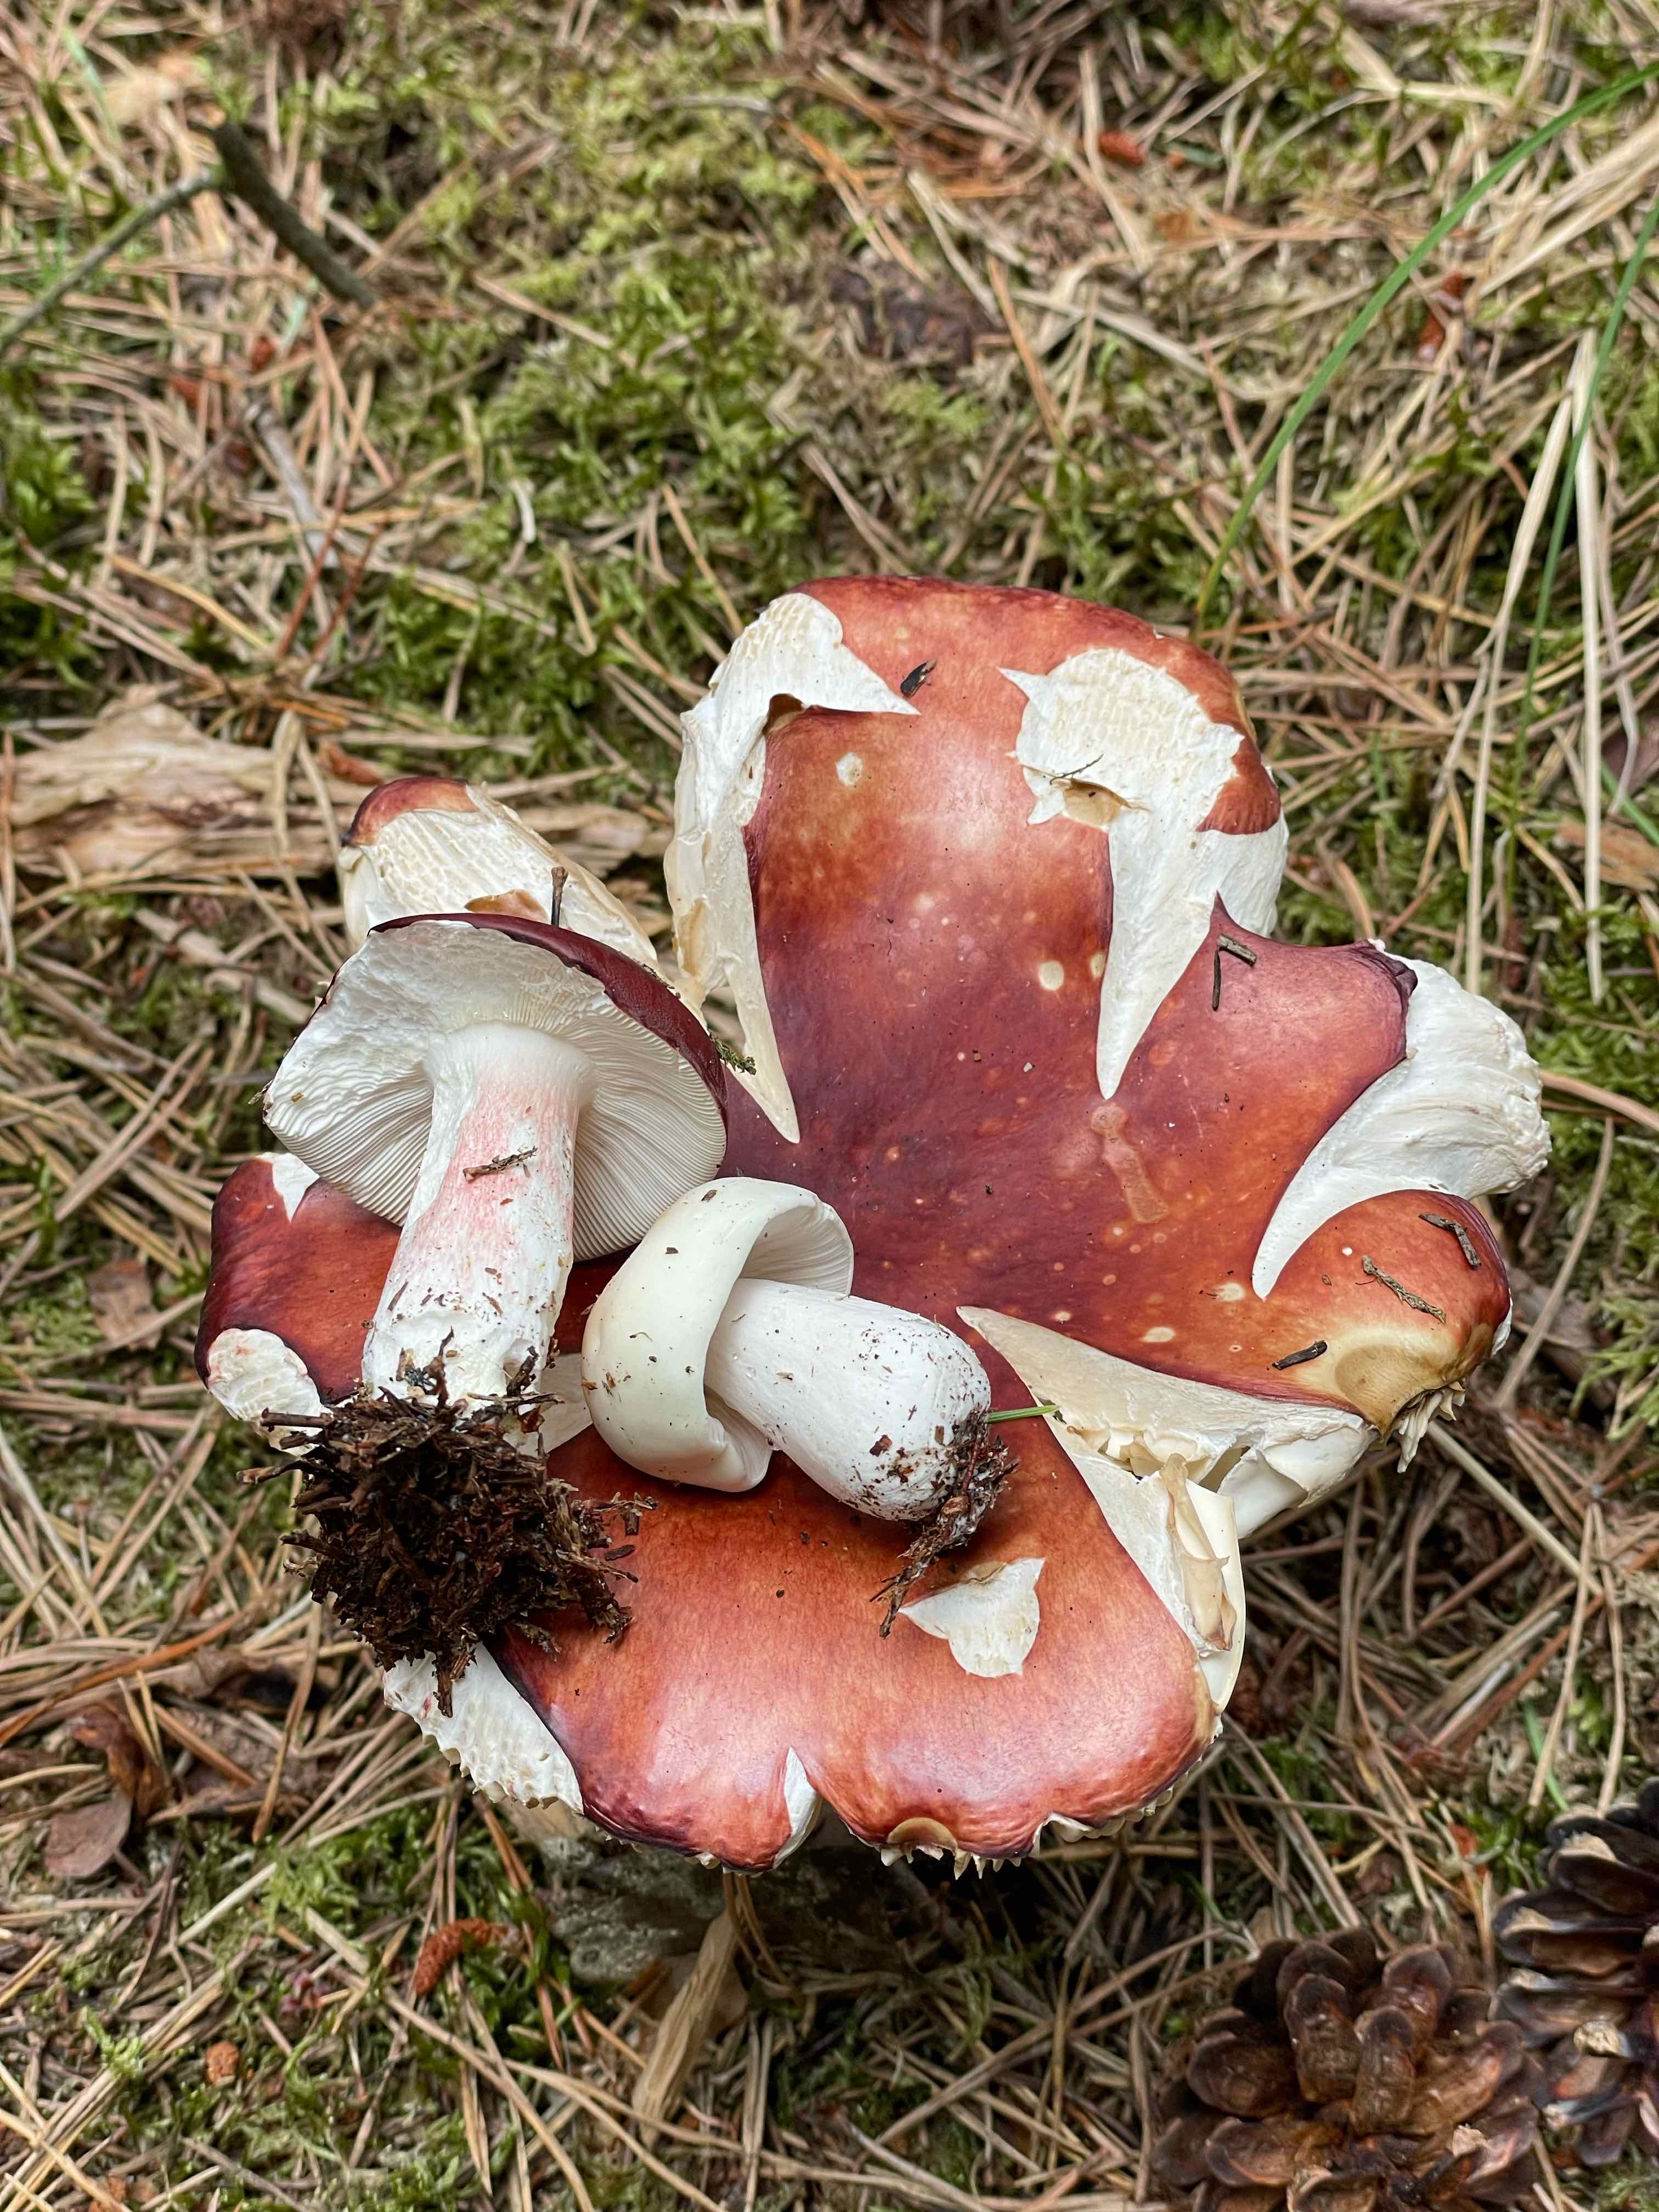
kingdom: Fungi
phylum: Basidiomycota
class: Agaricomycetes
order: Russulales
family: Russulaceae
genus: Russula
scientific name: Russula paludosa
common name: prægtig skørhat
